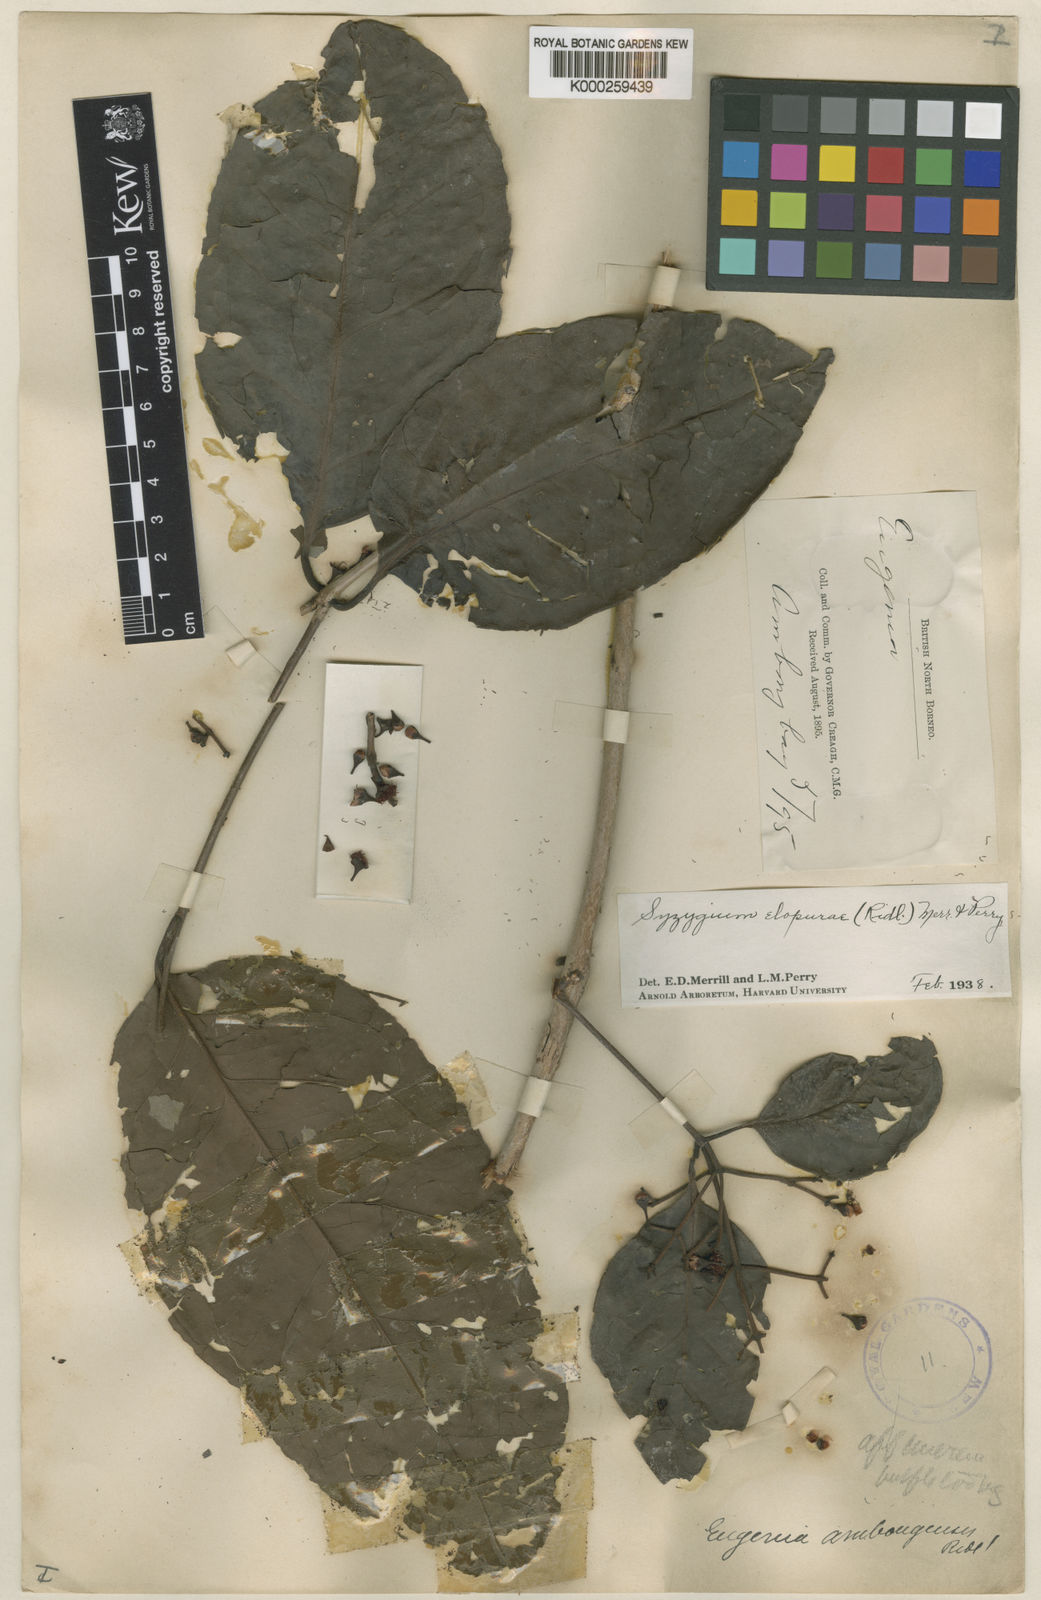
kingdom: Plantae
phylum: Tracheophyta
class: Magnoliopsida
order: Myrtales
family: Myrtaceae
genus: Syzygium
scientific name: Syzygium elopurae
